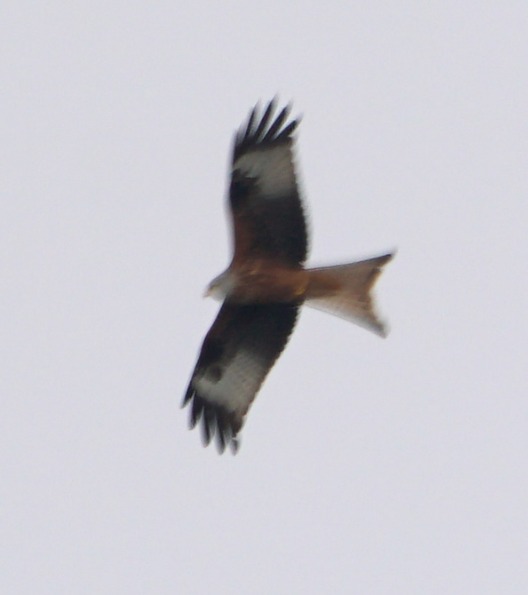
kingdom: Animalia
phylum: Chordata
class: Aves
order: Accipitriformes
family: Accipitridae
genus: Milvus
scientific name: Milvus milvus
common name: Rød glente
